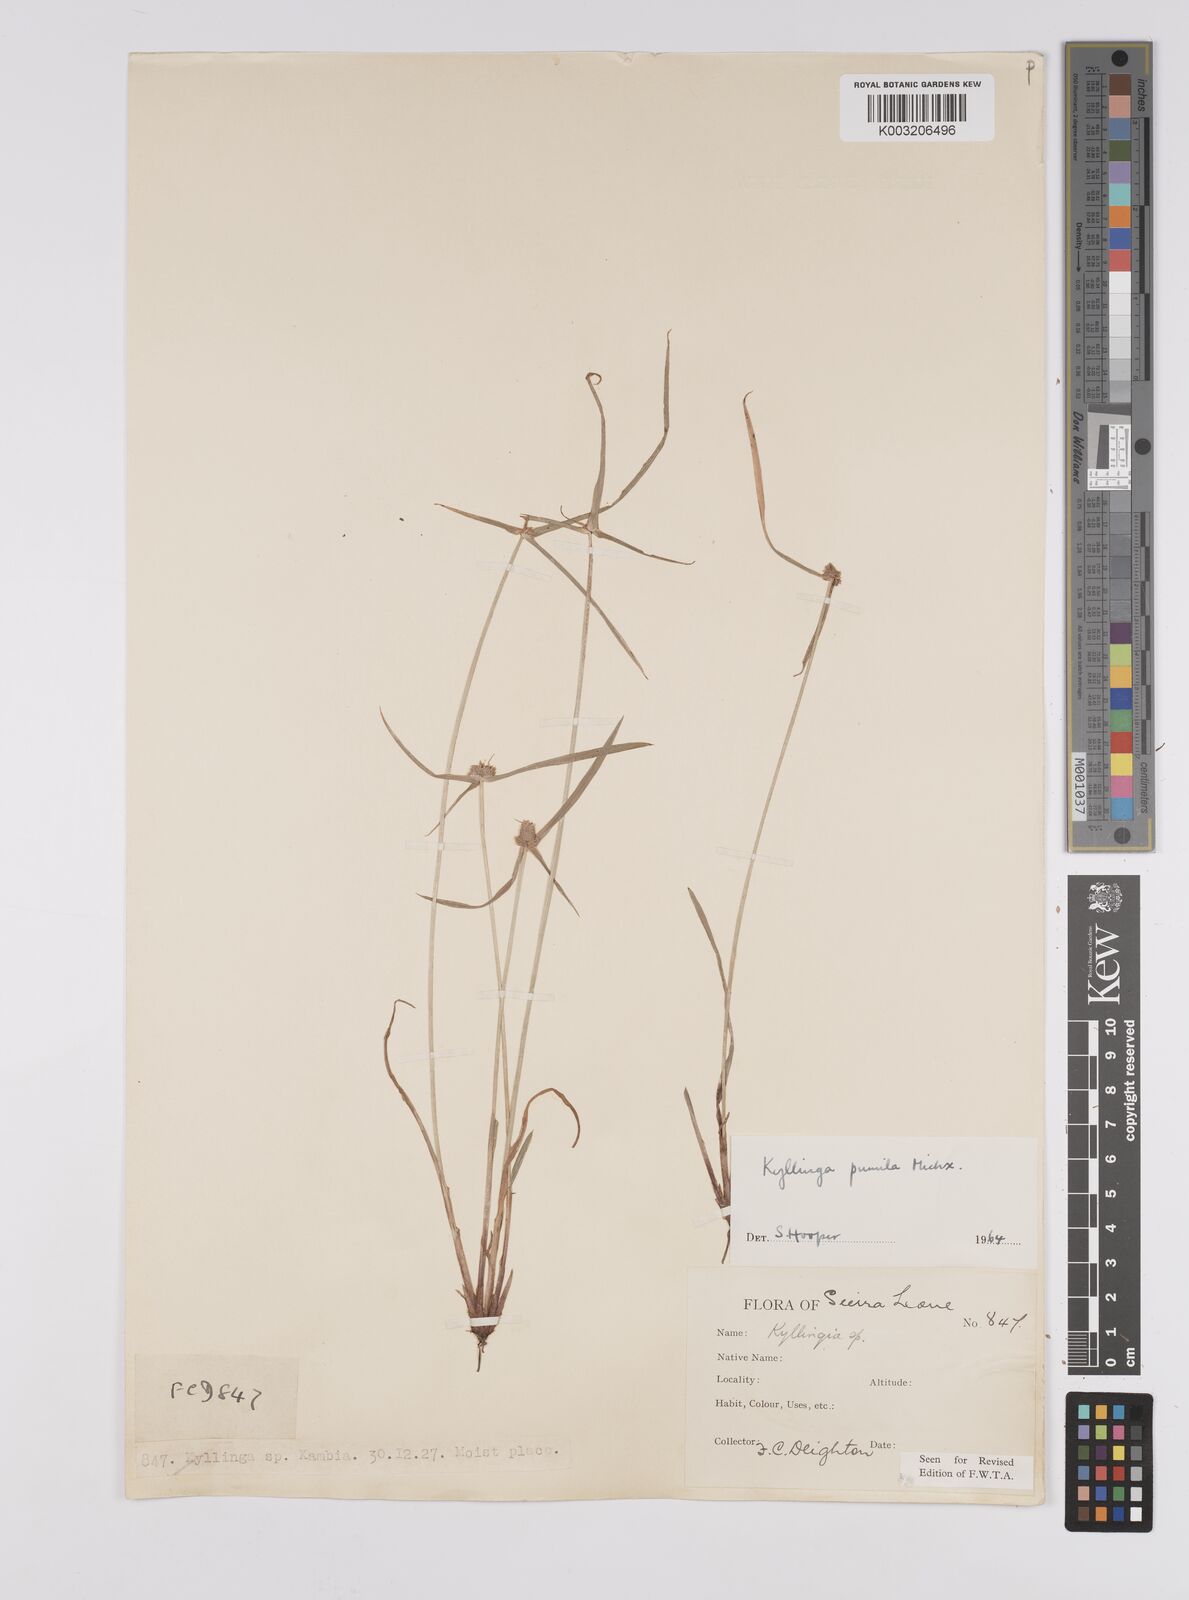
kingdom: Plantae
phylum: Tracheophyta
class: Liliopsida
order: Poales
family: Cyperaceae
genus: Cyperus
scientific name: Cyperus
